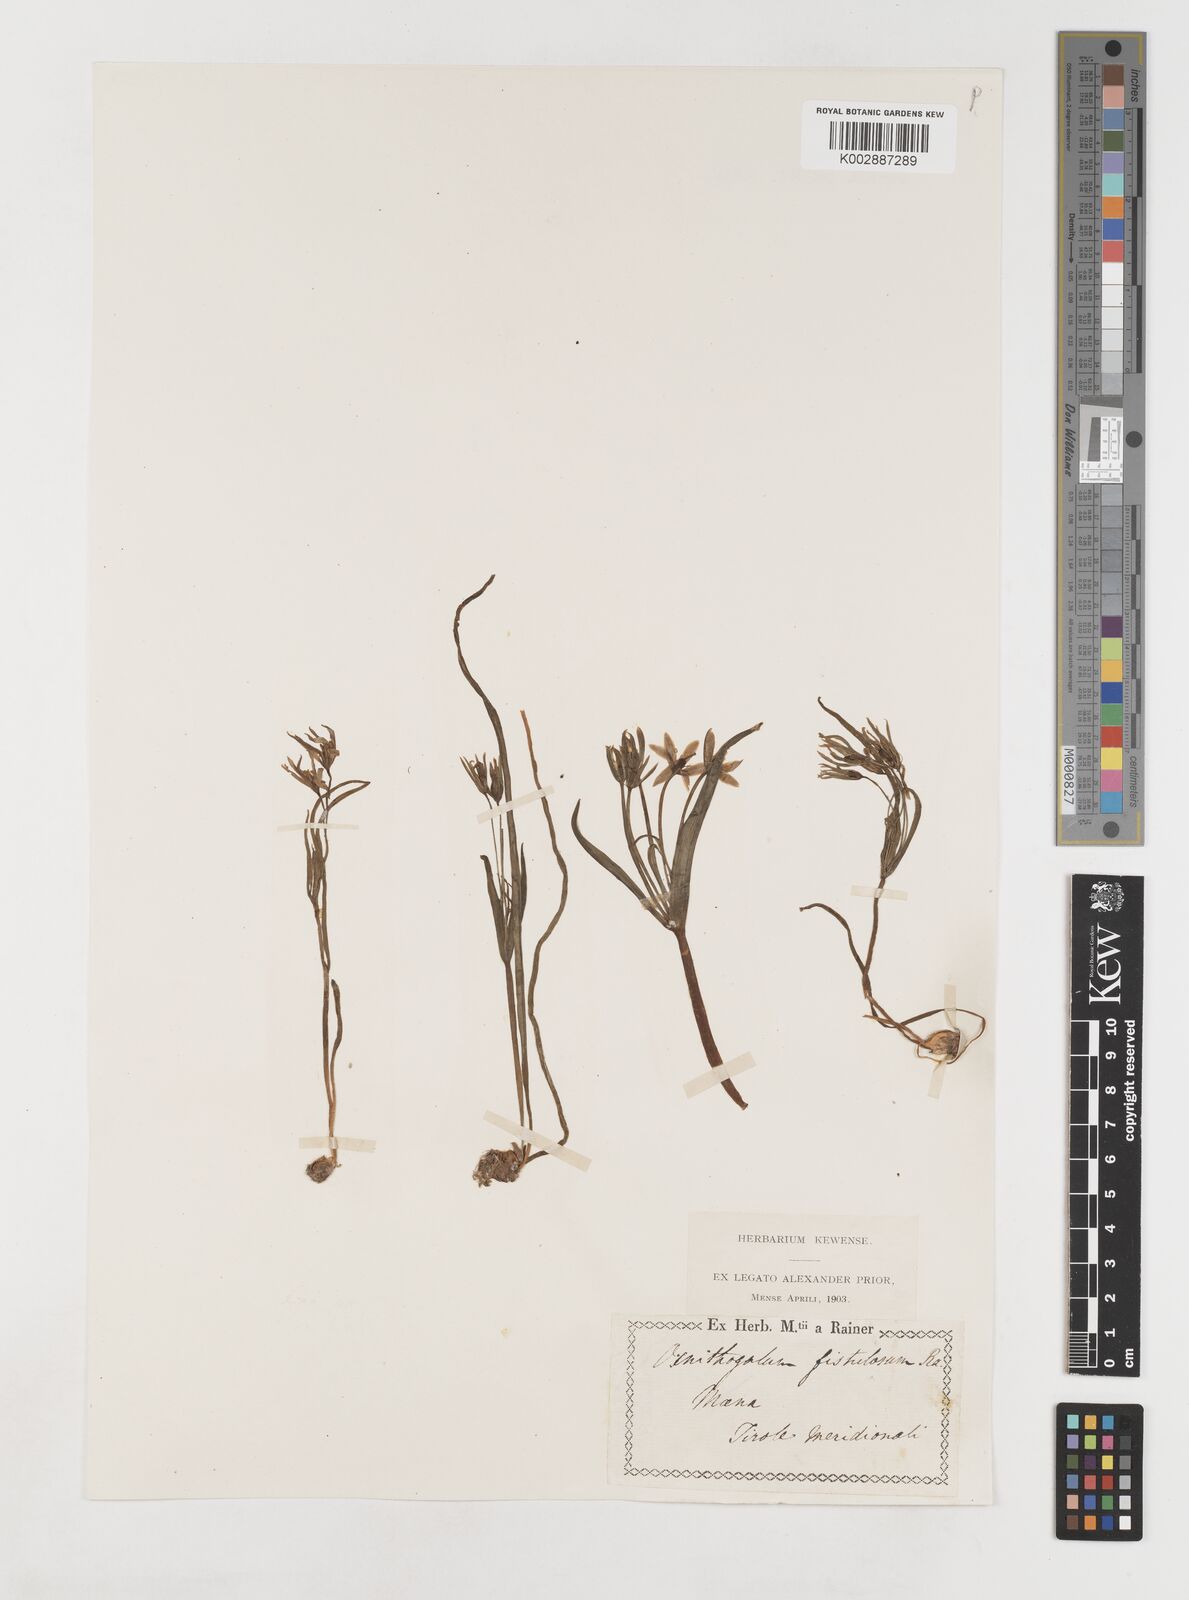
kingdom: Plantae
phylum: Tracheophyta
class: Liliopsida
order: Liliales
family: Liliaceae
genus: Gagea
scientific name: Gagea bohemica
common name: Early star-of-bethlehem
